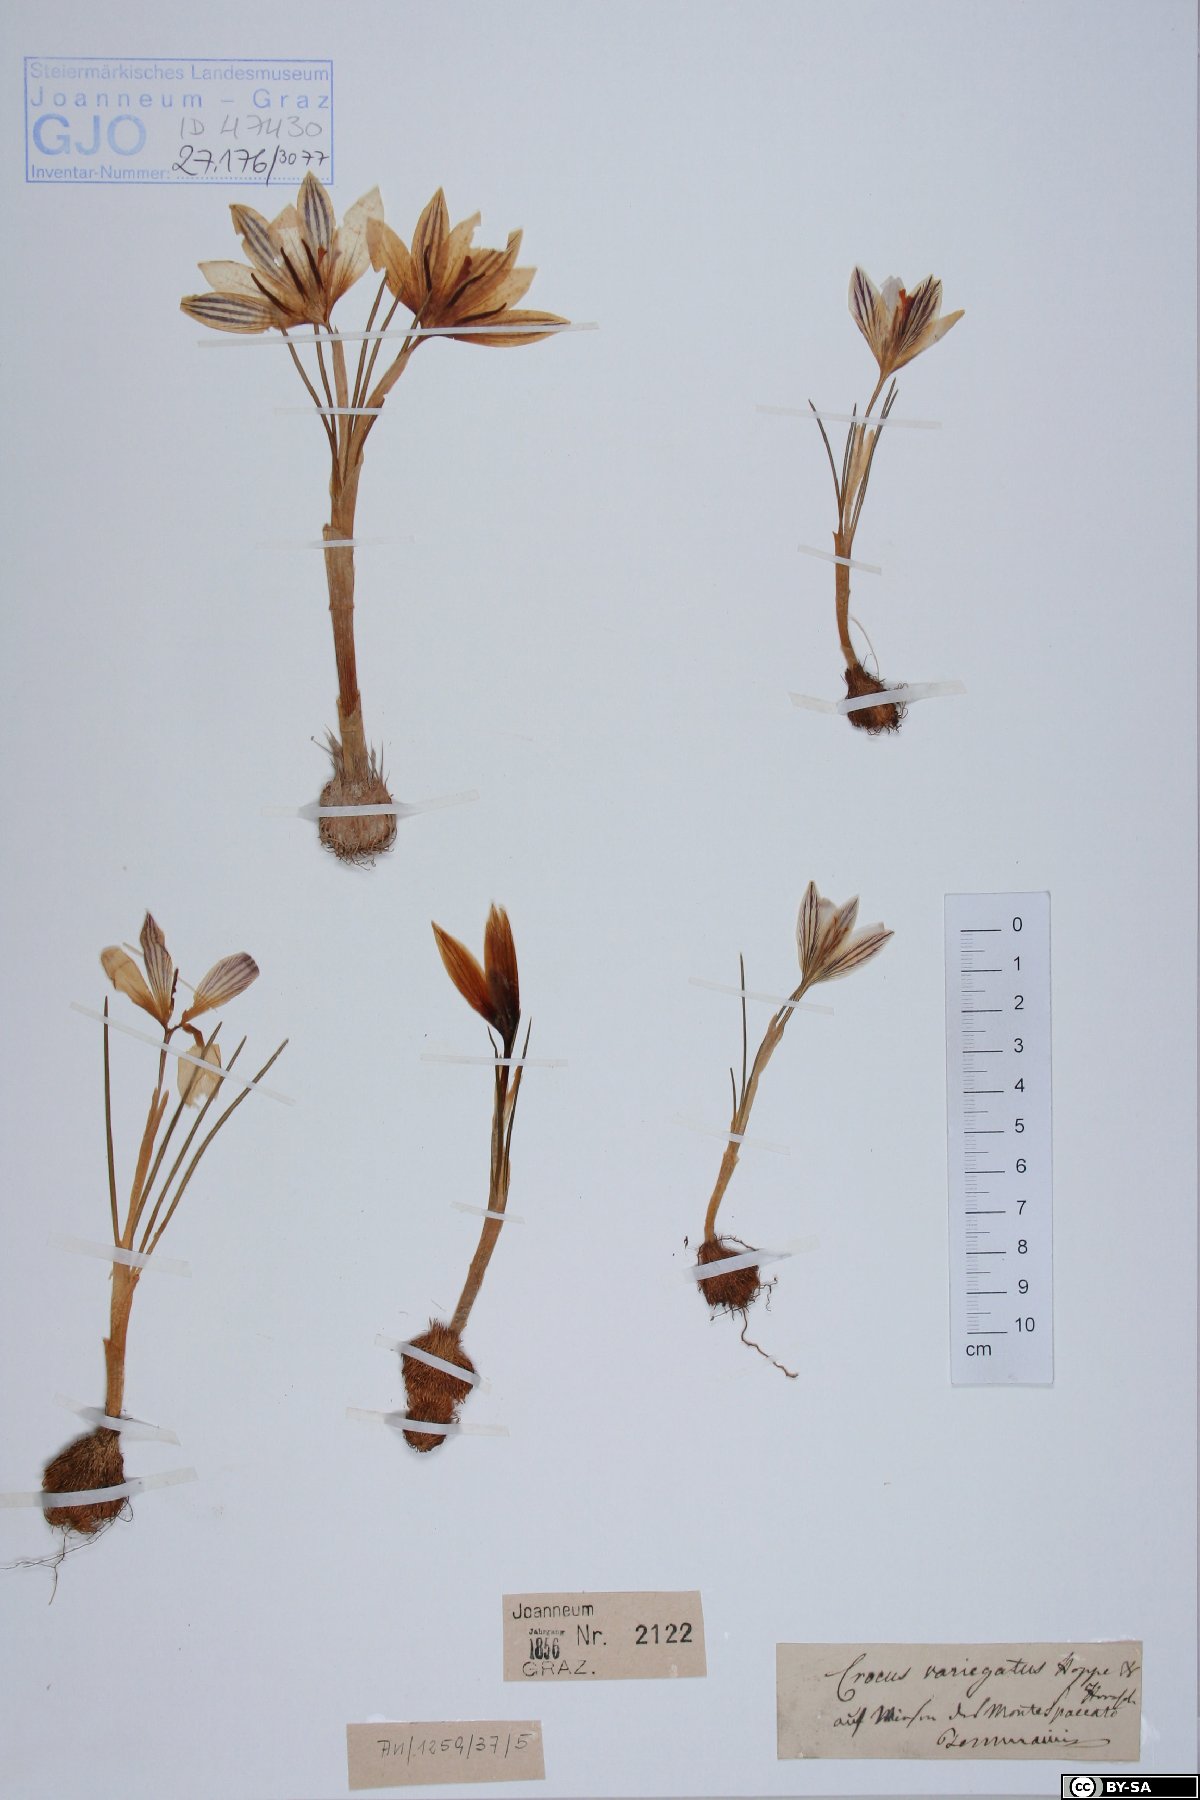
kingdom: Plantae
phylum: Tracheophyta
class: Liliopsida
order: Asparagales
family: Iridaceae
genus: Crocus
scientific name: Crocus variegatus
